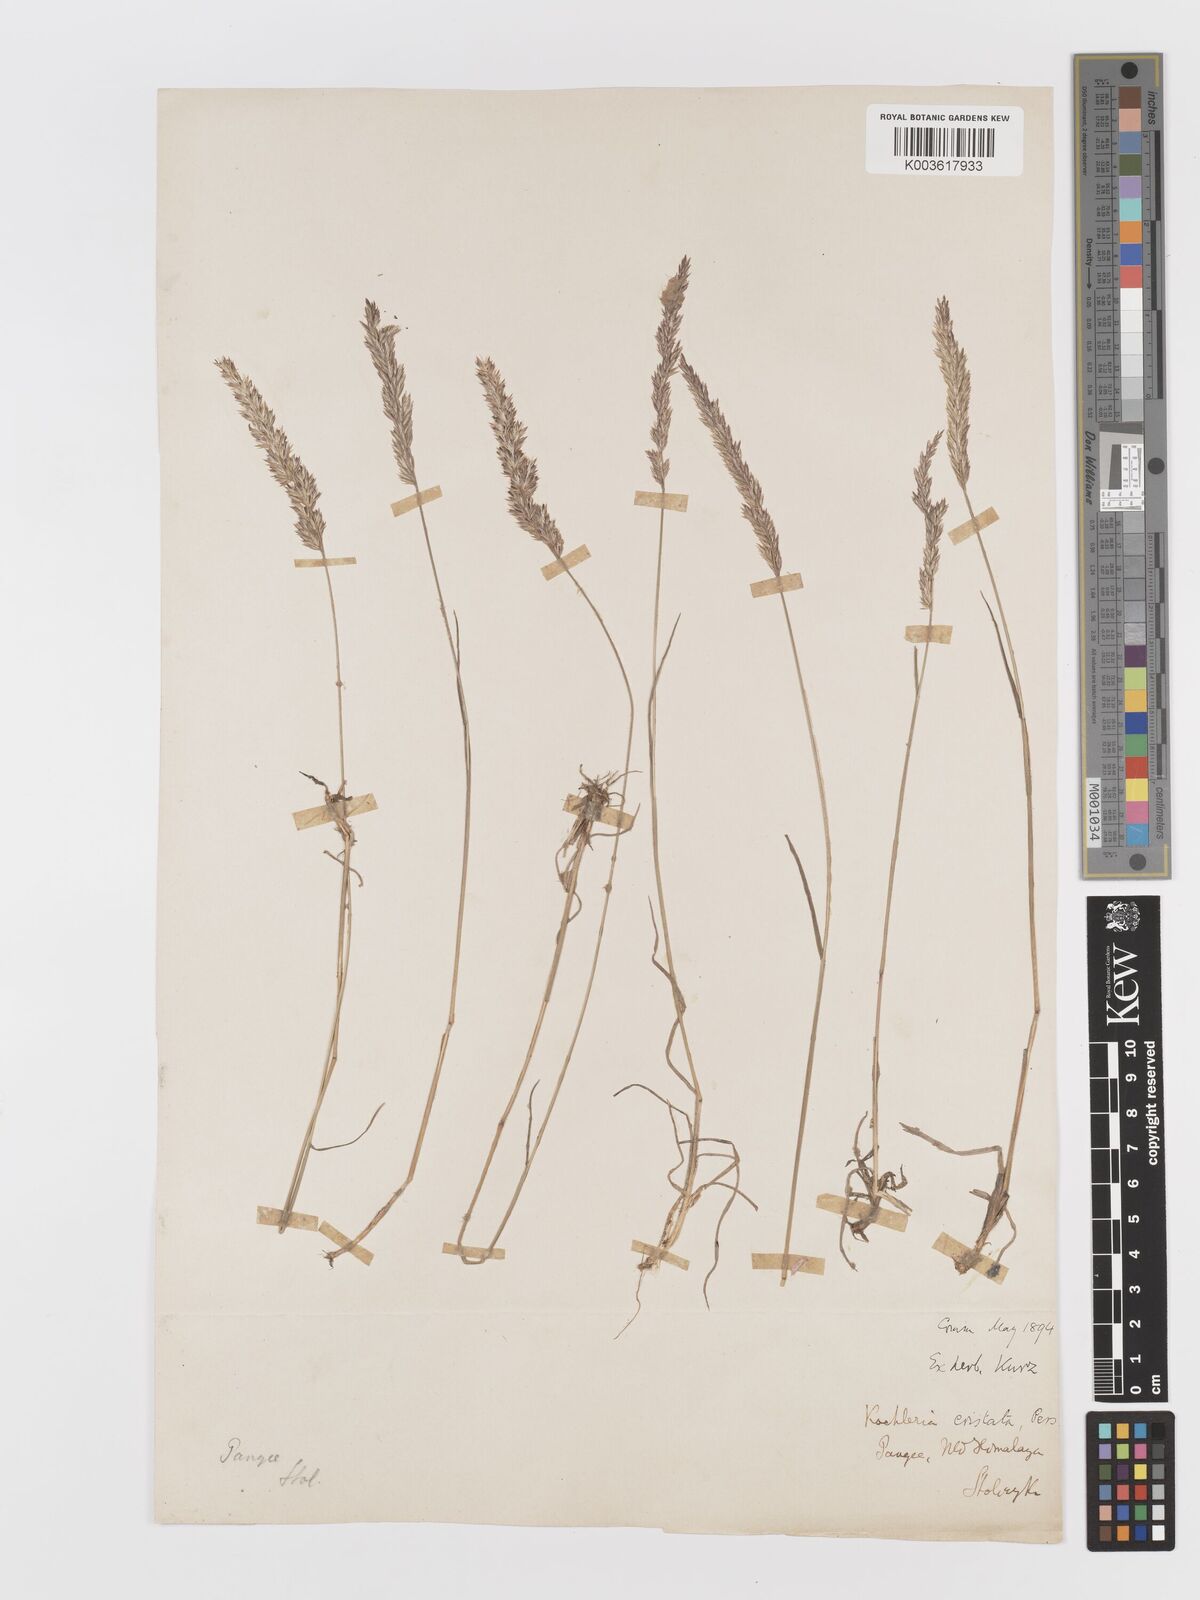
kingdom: Plantae
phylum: Tracheophyta
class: Liliopsida
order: Poales
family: Poaceae
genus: Koeleria
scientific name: Koeleria
